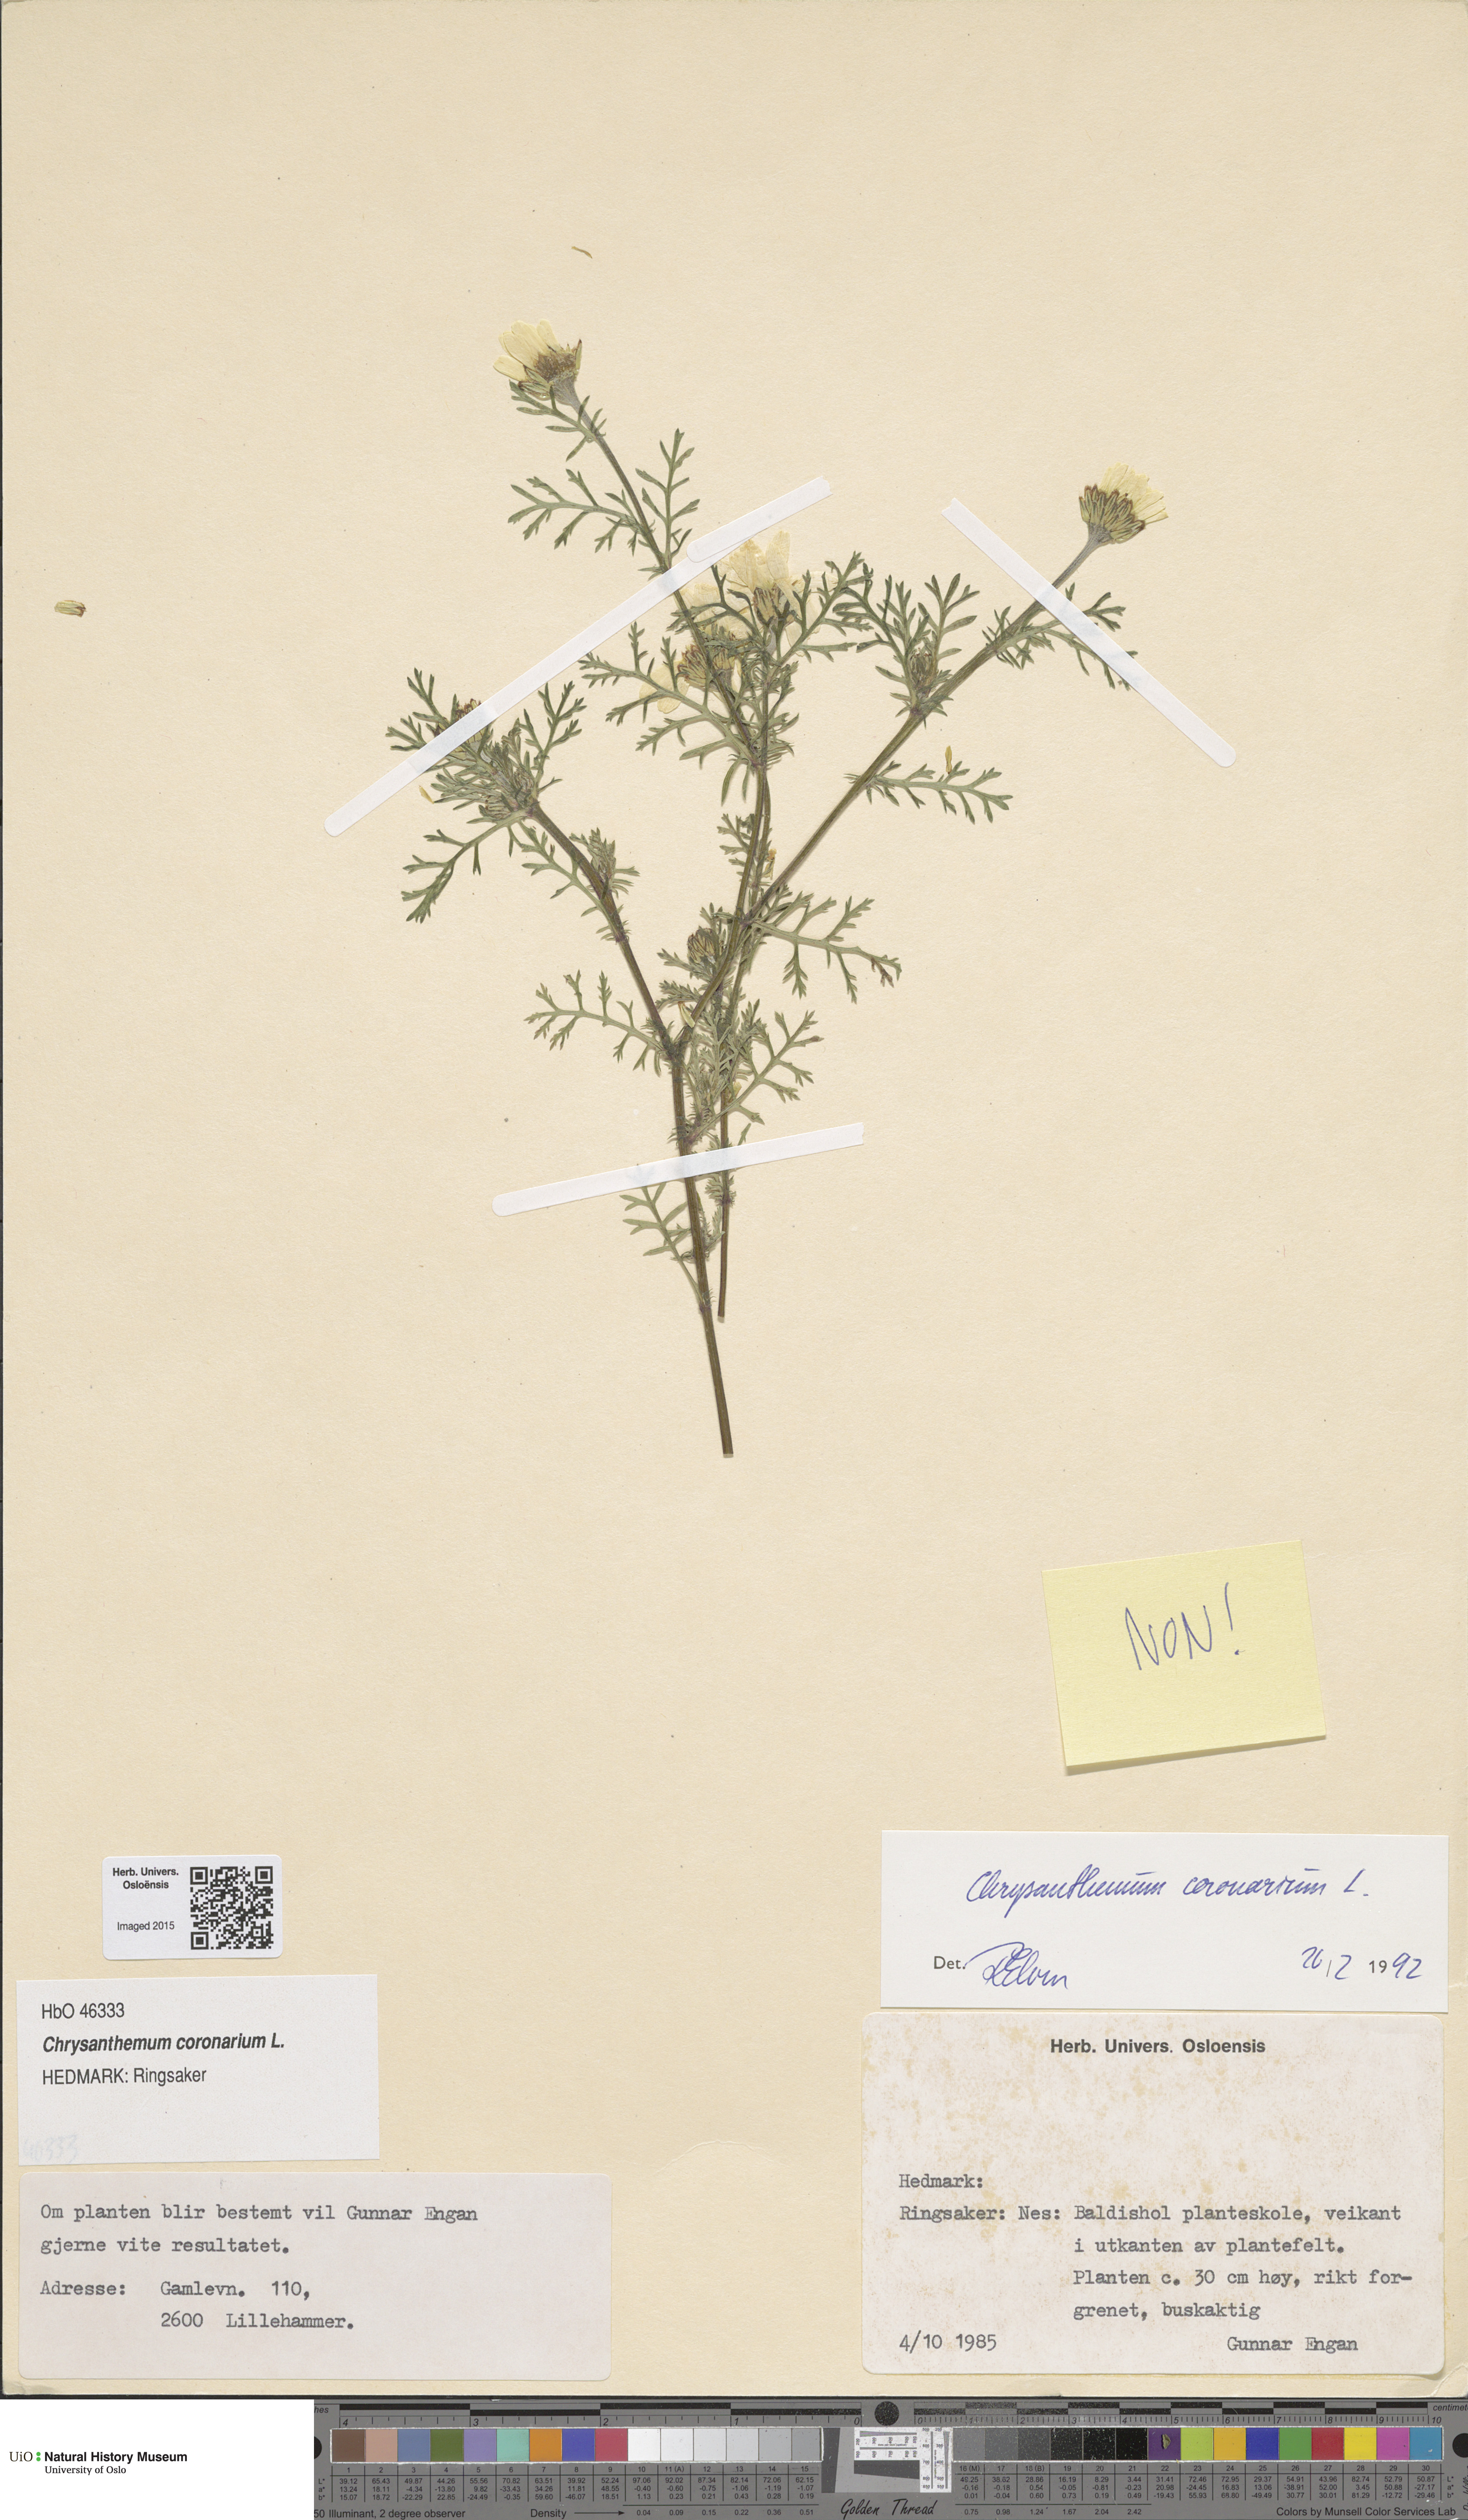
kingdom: Plantae
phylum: Tracheophyta
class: Magnoliopsida
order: Asterales
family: Asteraceae
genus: Glebionis
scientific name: Glebionis coronaria
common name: Crowndaisy
